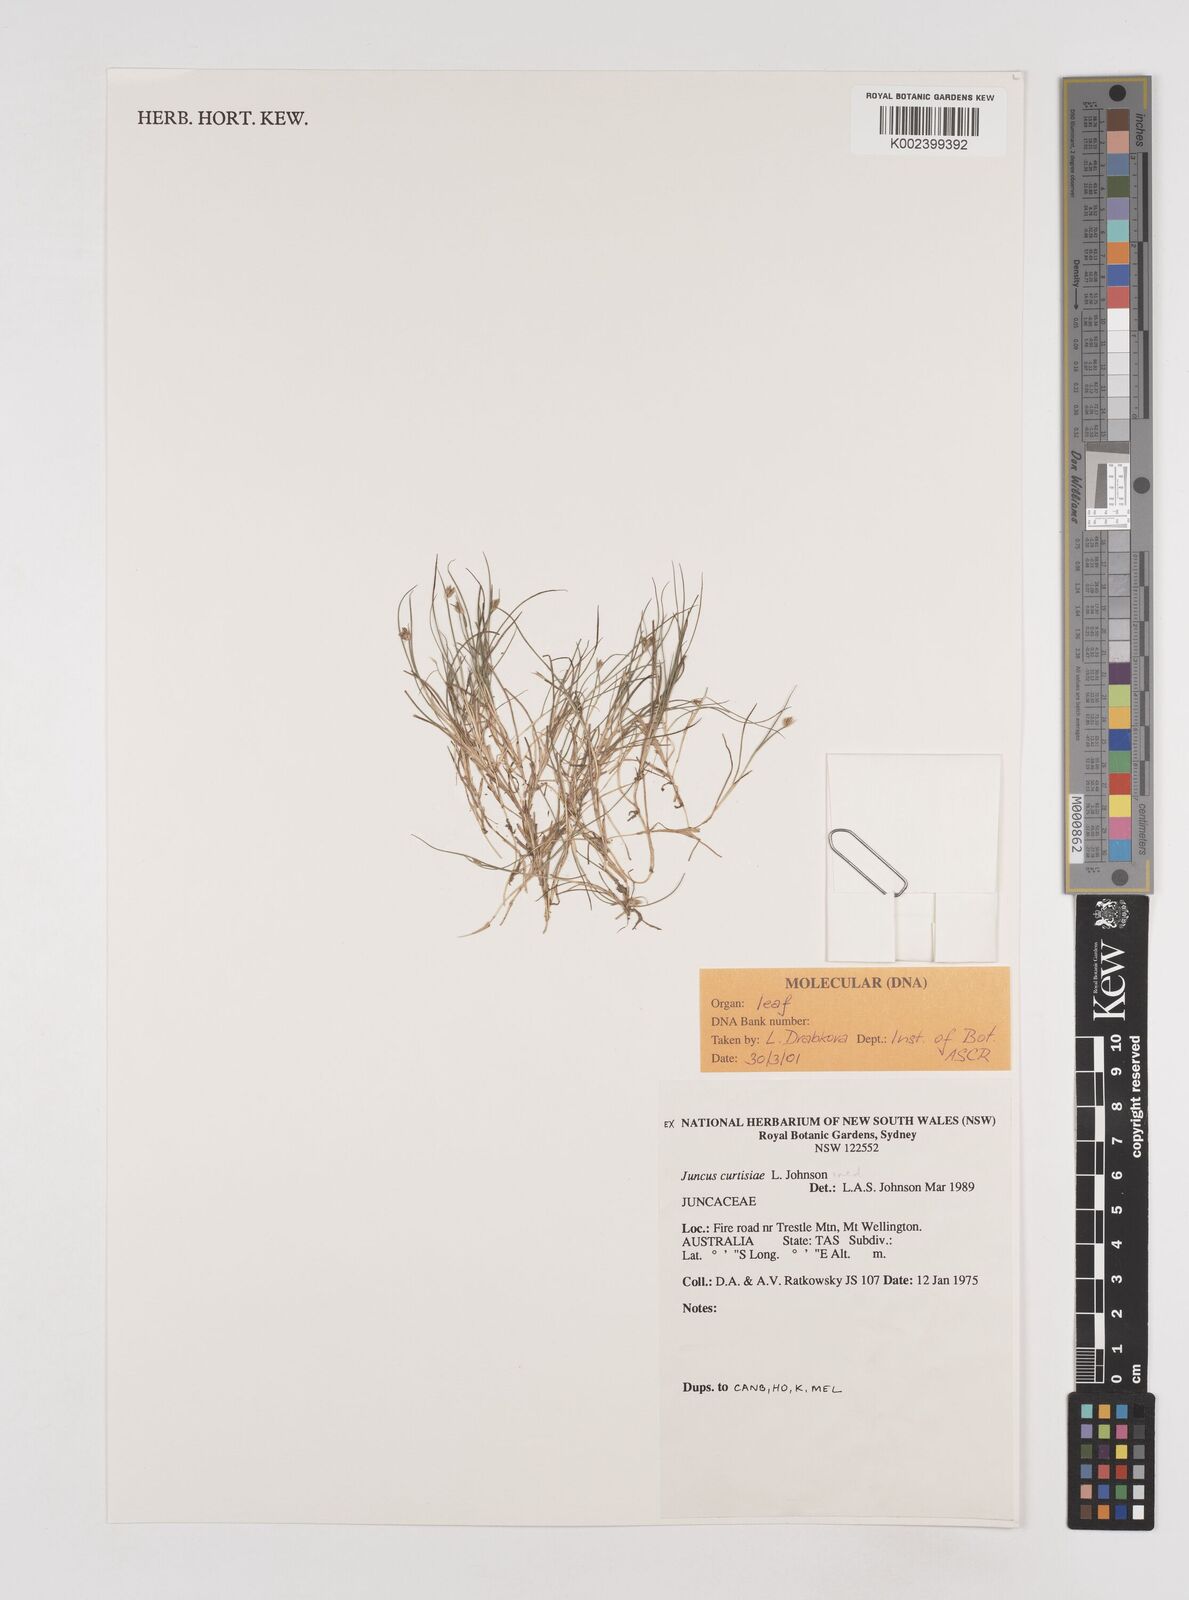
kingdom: Plantae
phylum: Tracheophyta
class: Liliopsida
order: Poales
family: Juncaceae
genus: Juncus
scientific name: Juncus curtisiae
